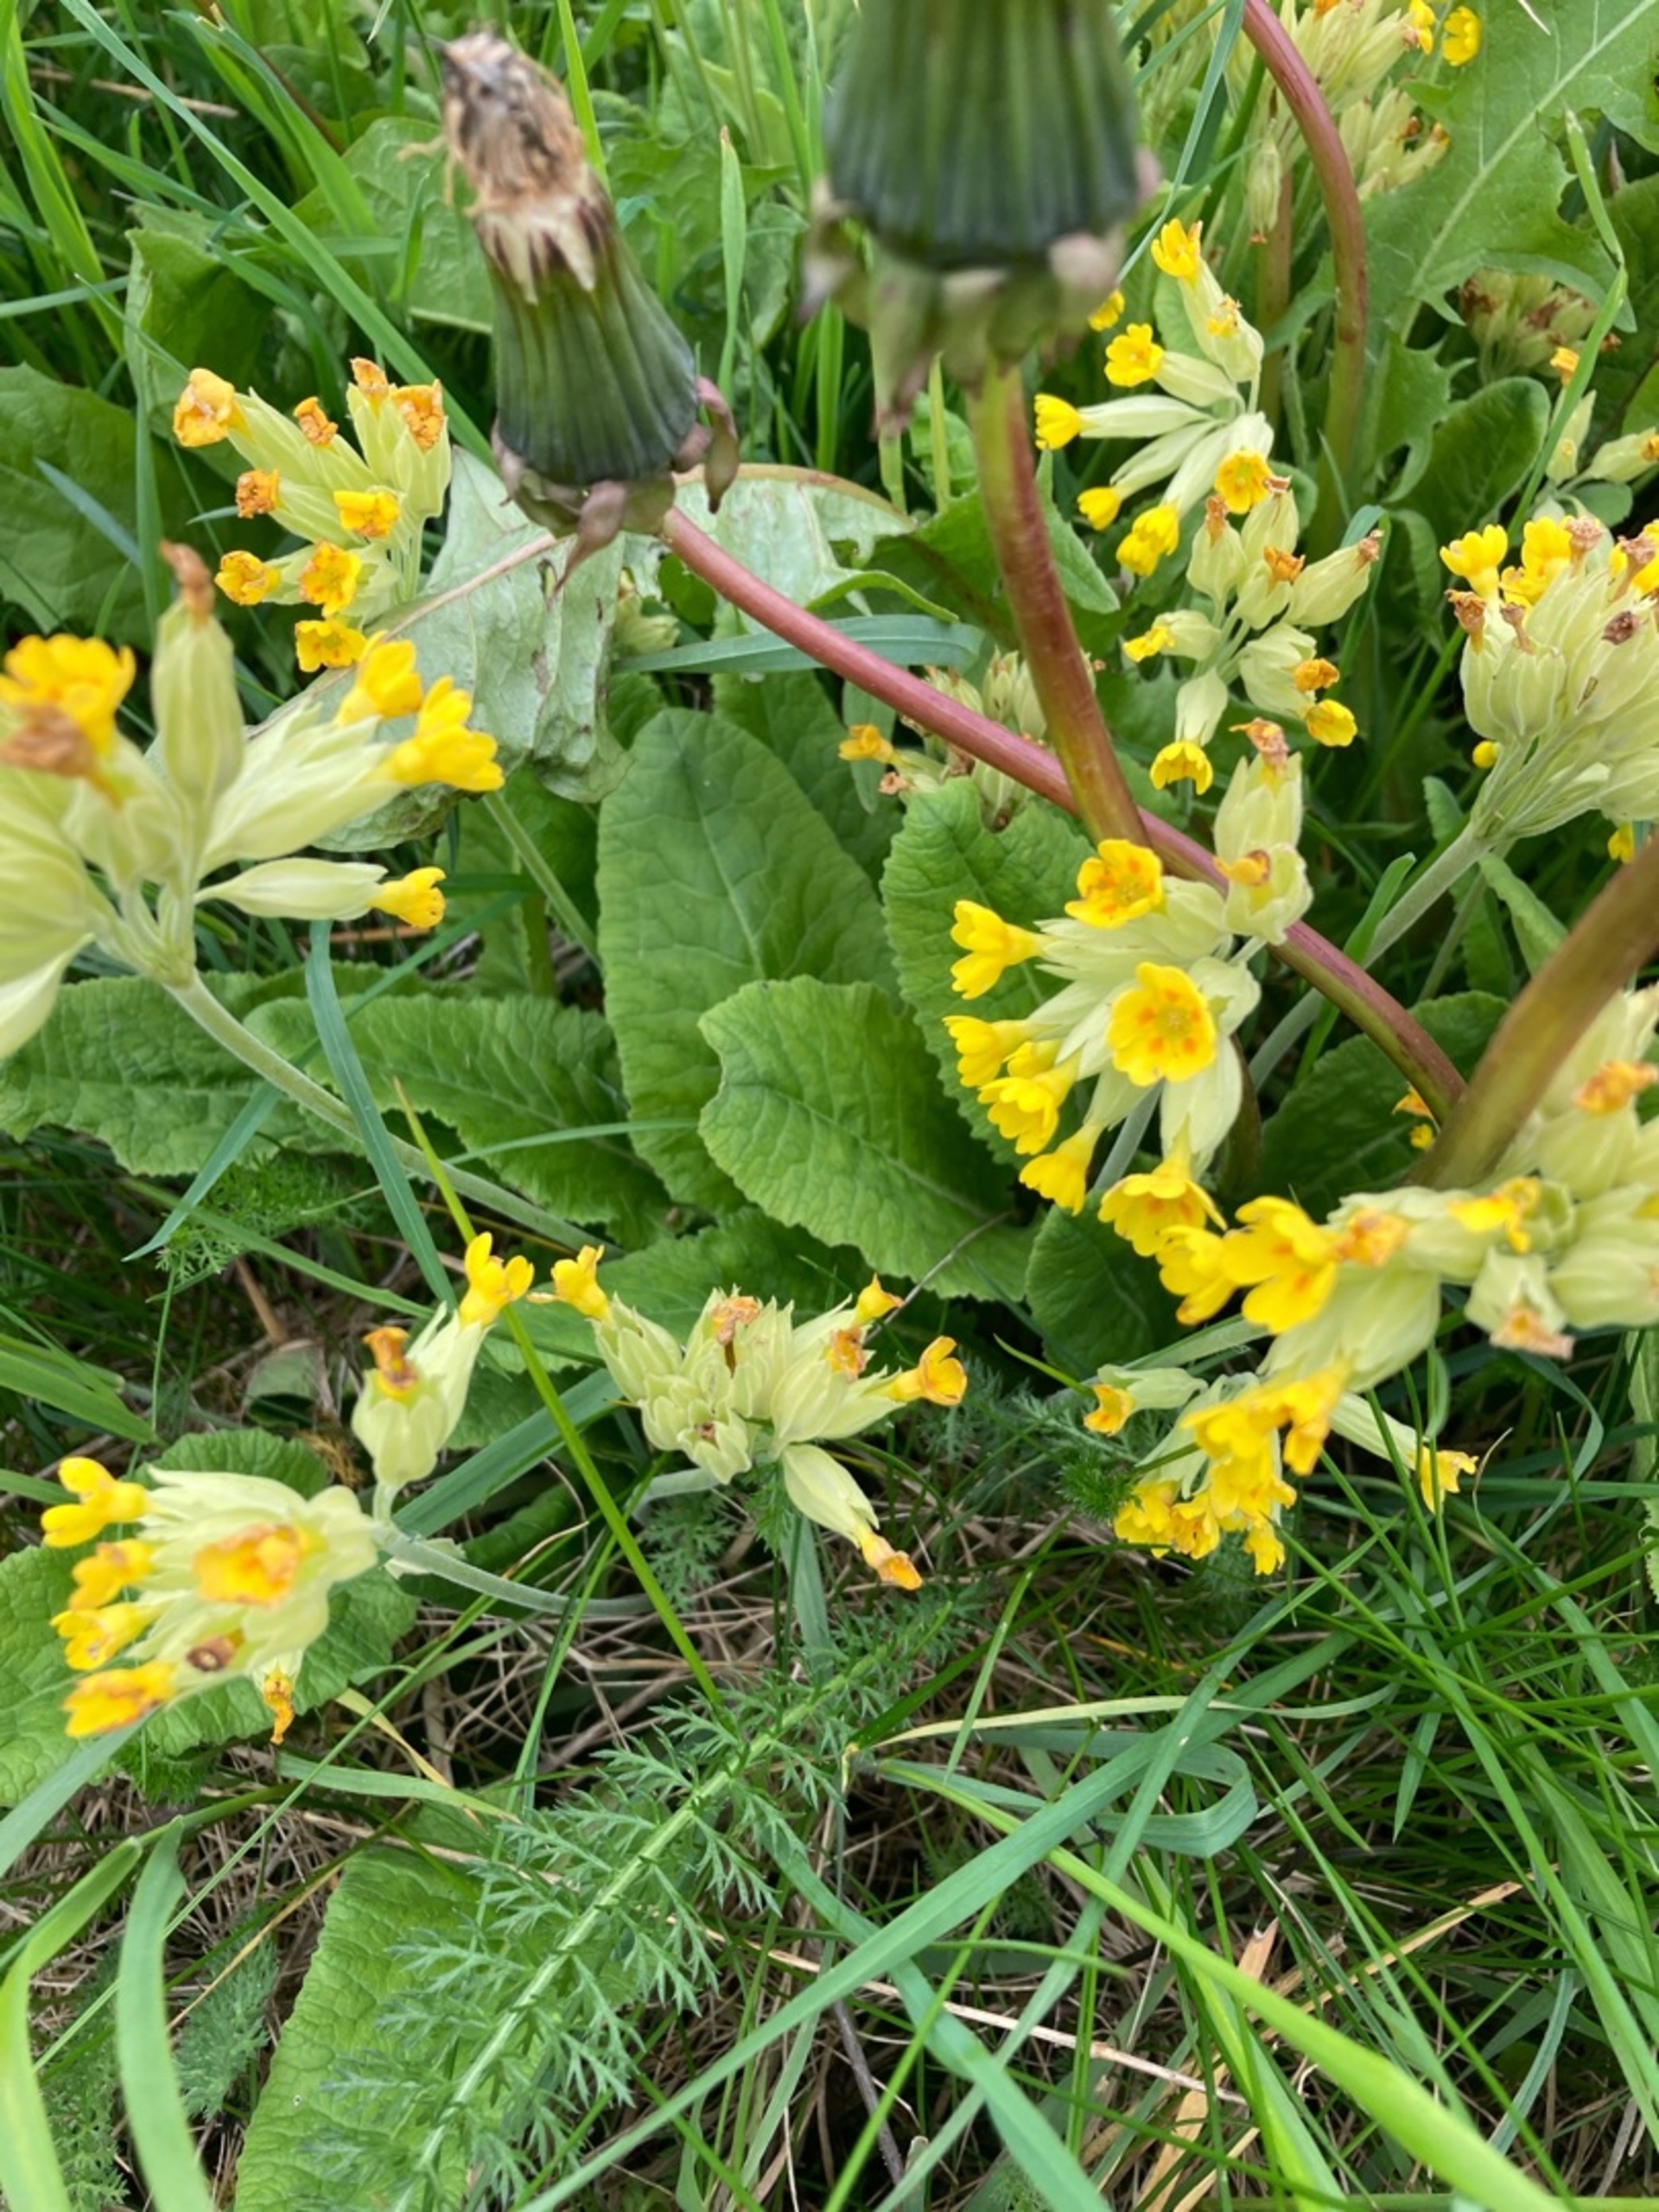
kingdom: Plantae
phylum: Tracheophyta
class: Magnoliopsida
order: Ericales
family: Primulaceae
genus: Primula
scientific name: Primula veris
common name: Hulkravet kodriver
